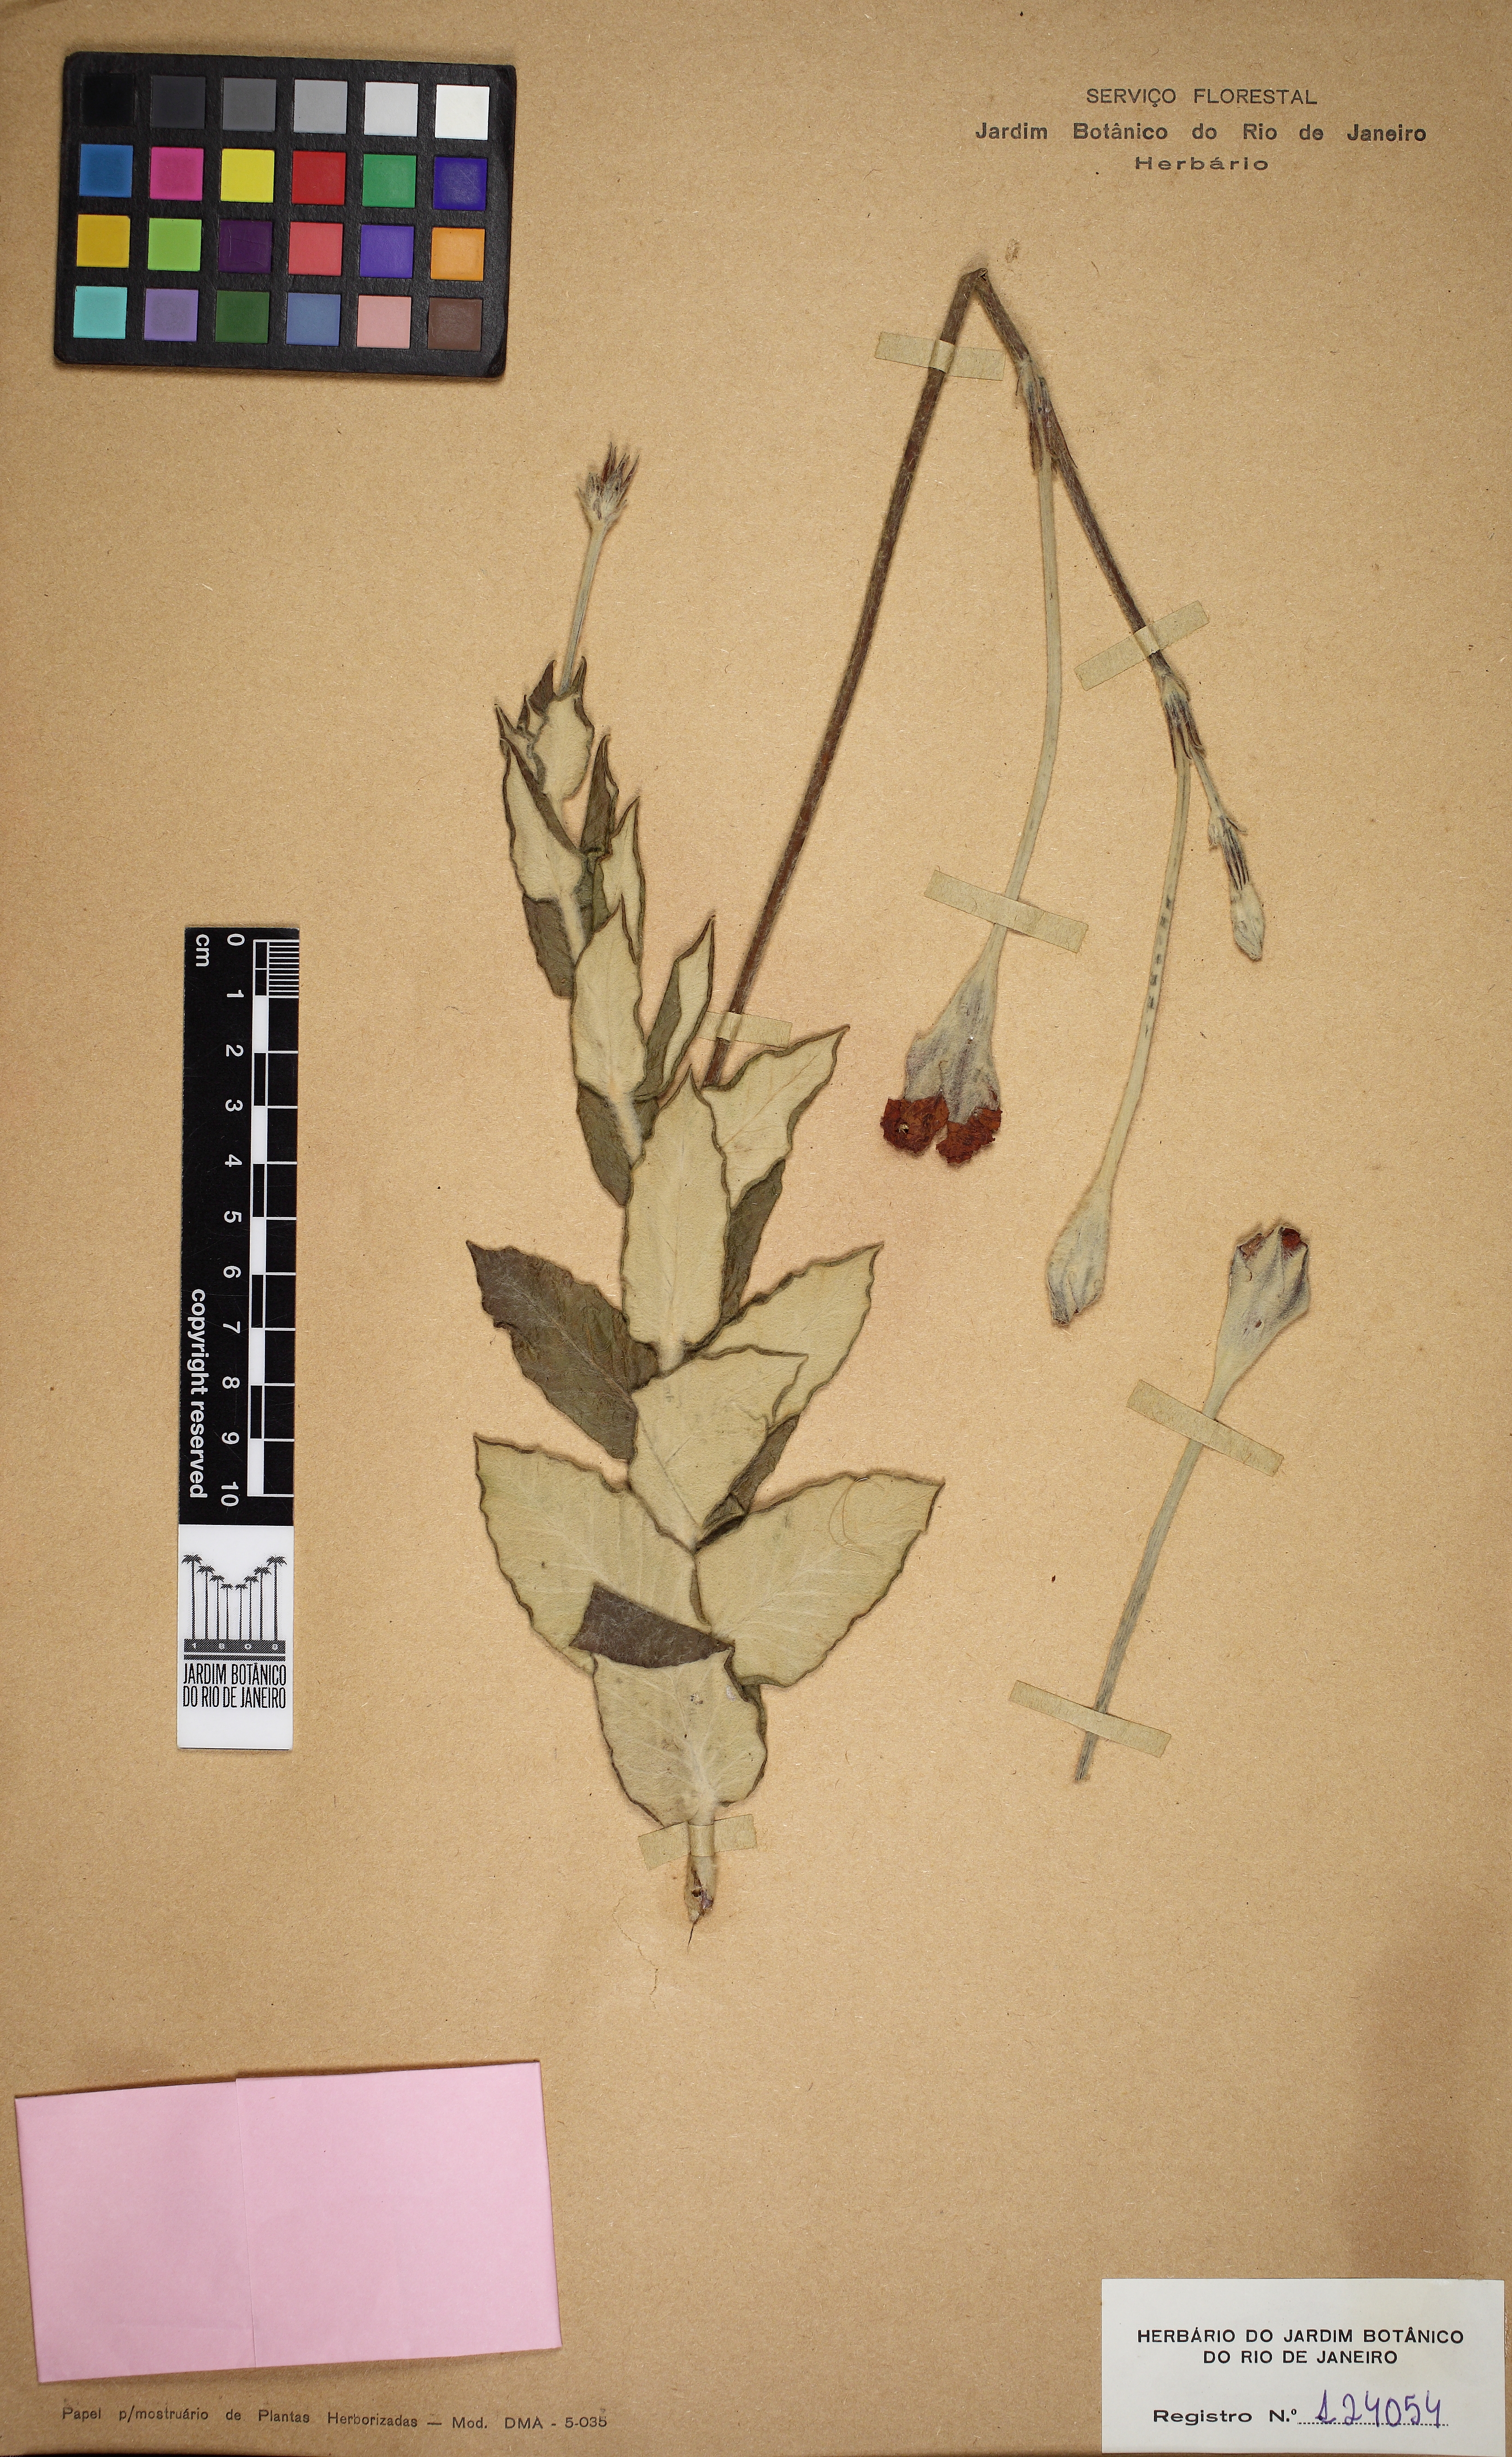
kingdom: Plantae
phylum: Tracheophyta
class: Magnoliopsida
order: Gentianales
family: Apocynaceae
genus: Mandevilla
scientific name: Mandevilla longiflora
